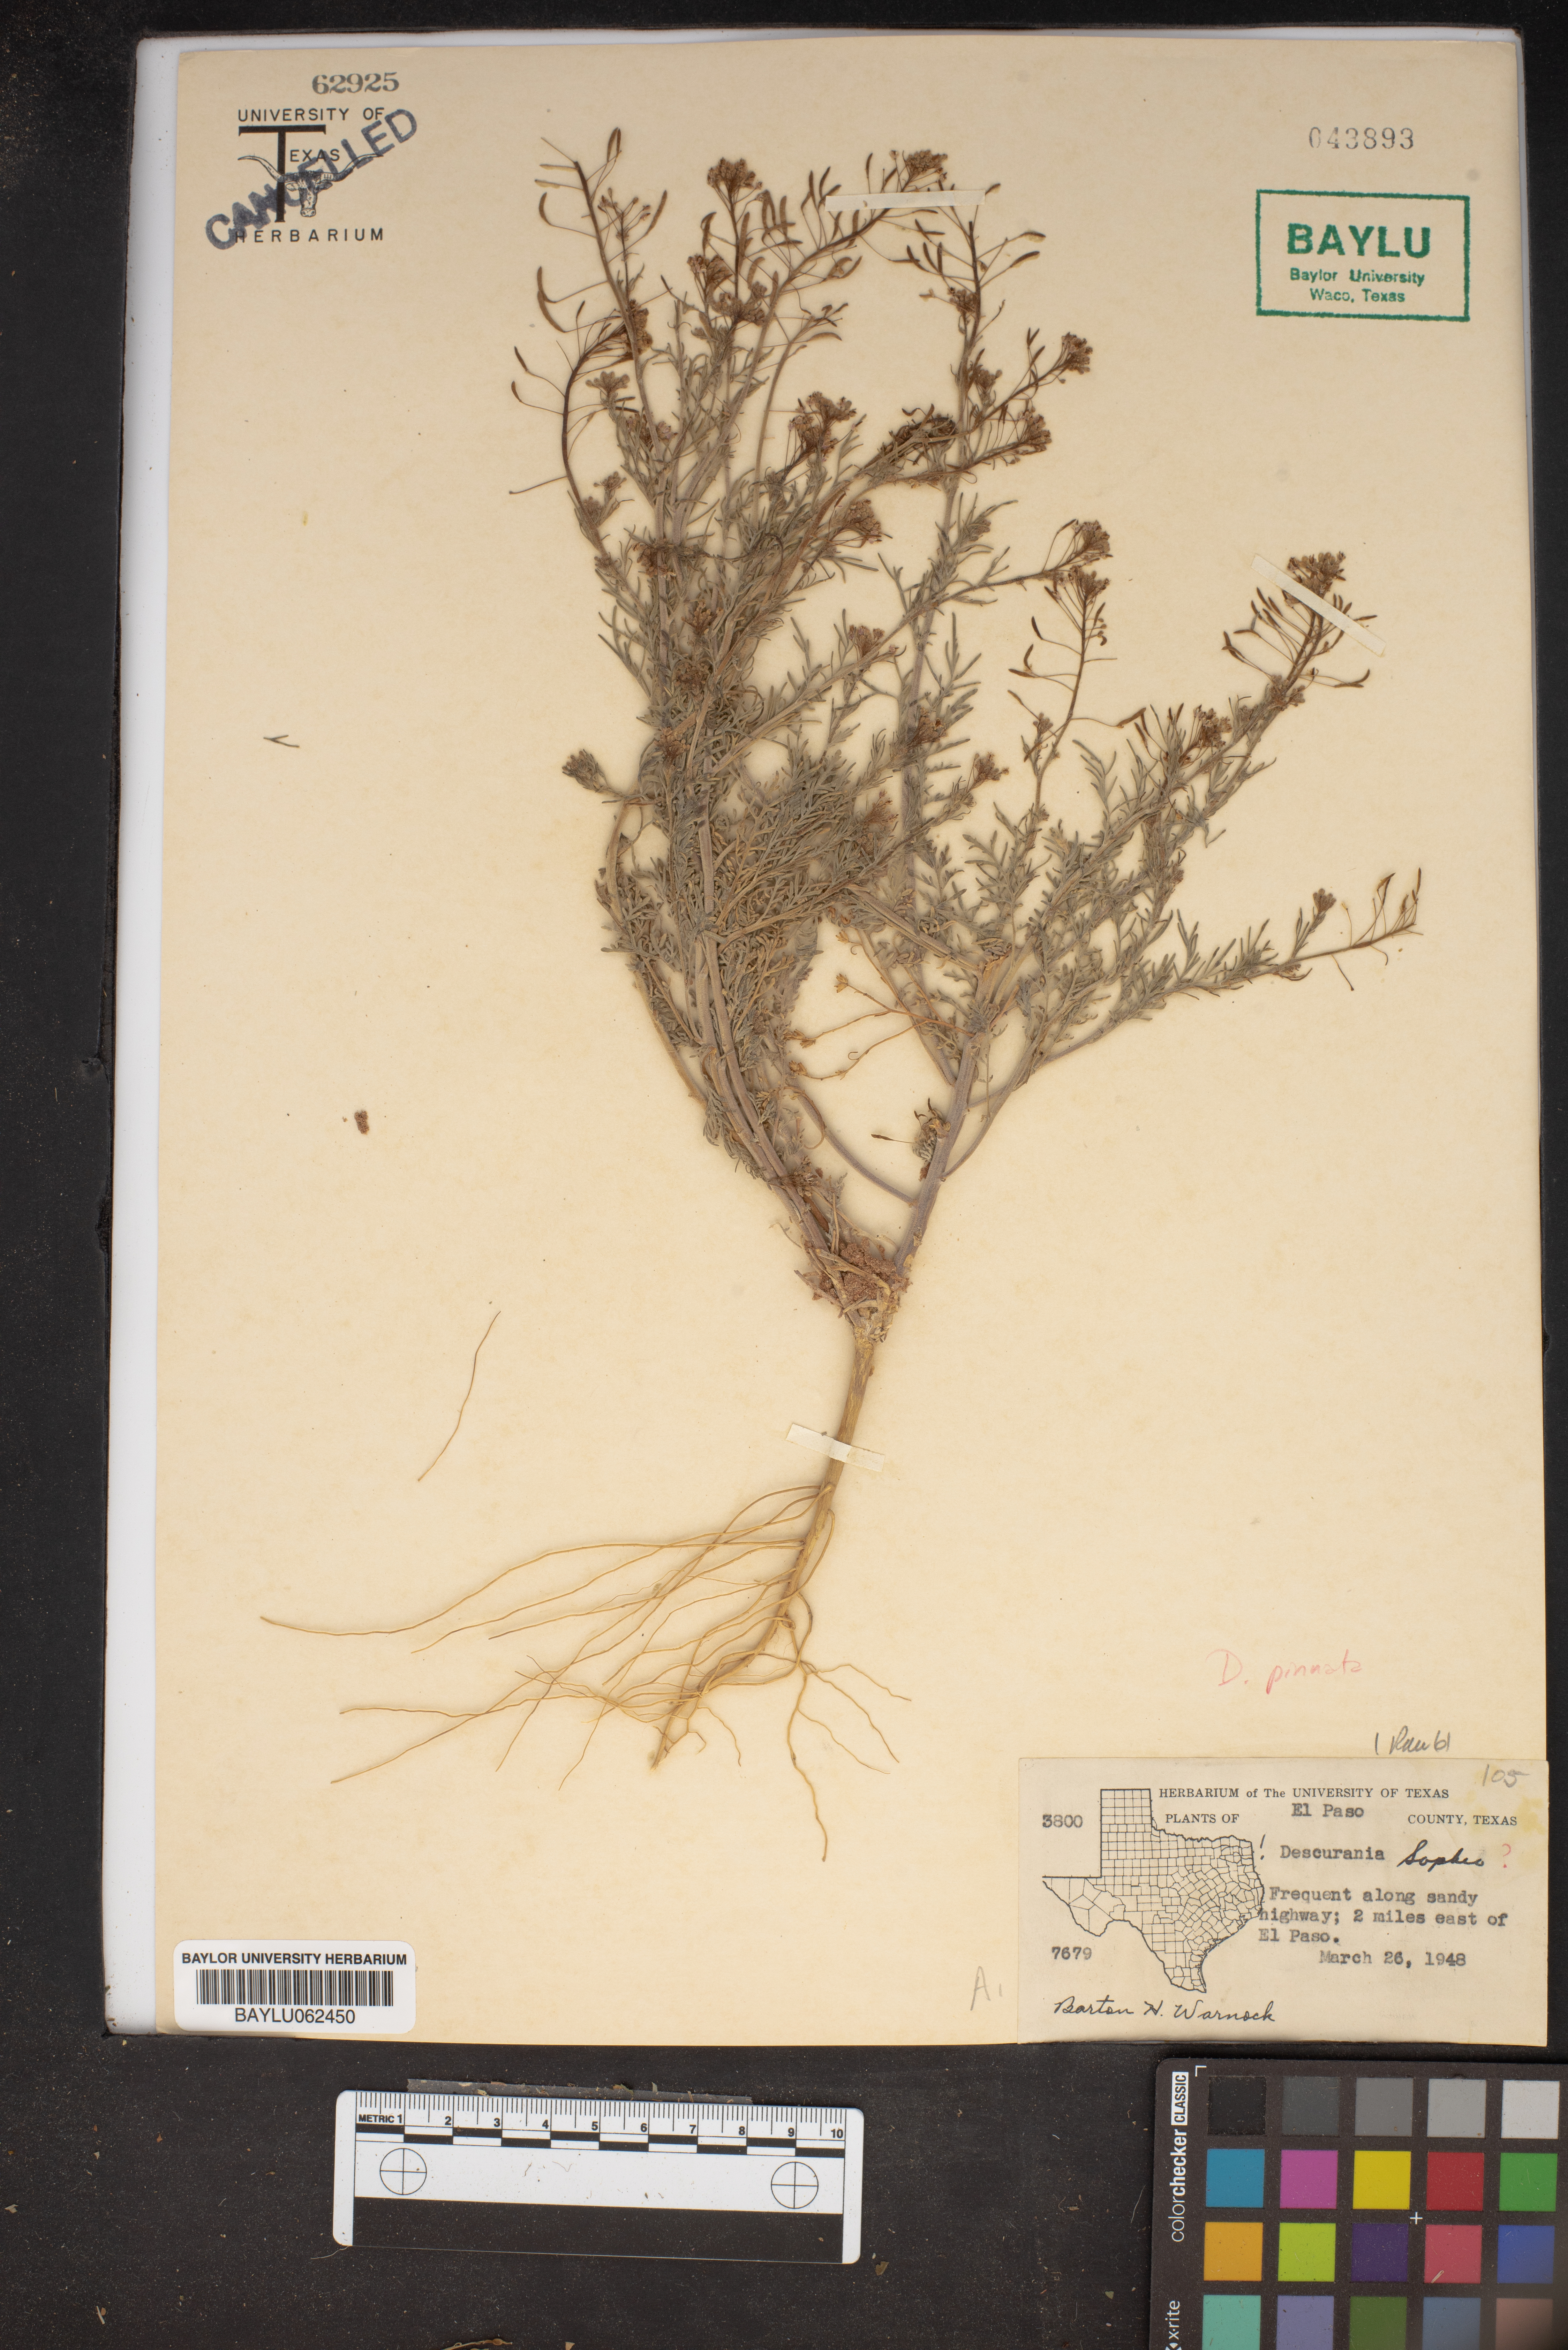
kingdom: Plantae
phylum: Tracheophyta
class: Magnoliopsida
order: Brassicales
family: Brassicaceae
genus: Descurainia
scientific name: Descurainia sophia
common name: Flixweed
